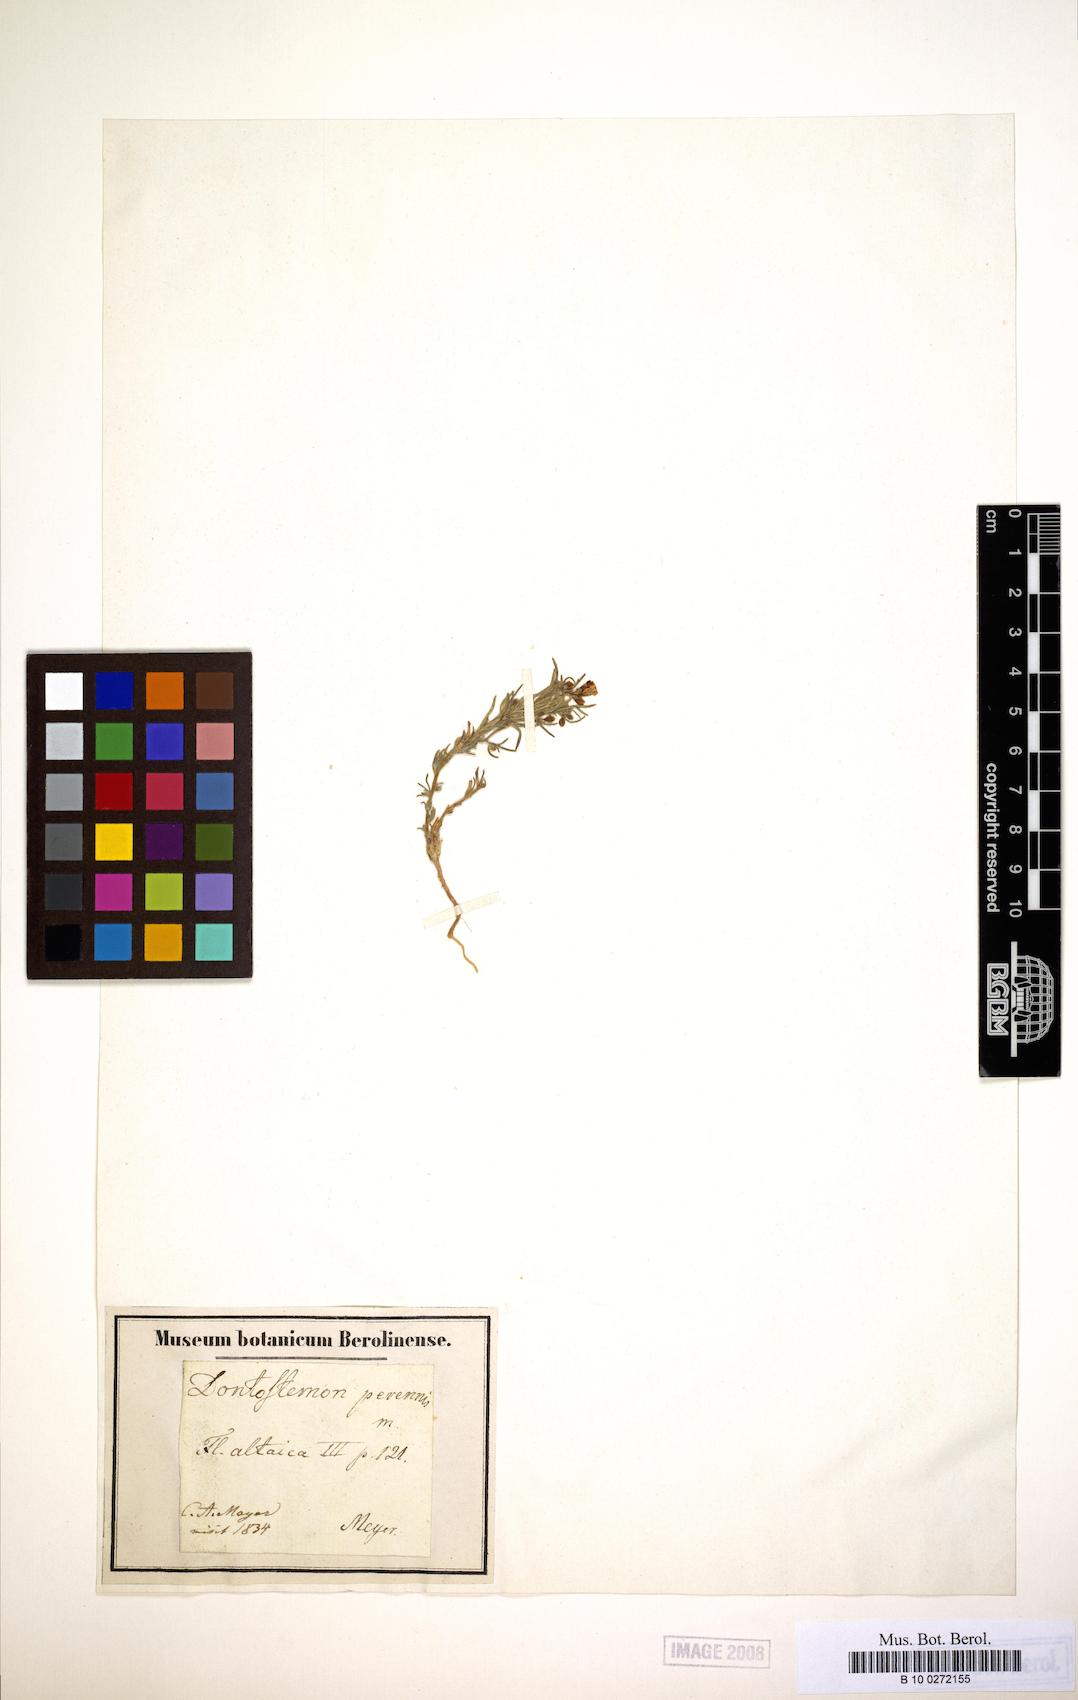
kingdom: Plantae
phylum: Tracheophyta
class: Magnoliopsida
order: Brassicales
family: Brassicaceae
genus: Dontostemon
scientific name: Dontostemon perennis
